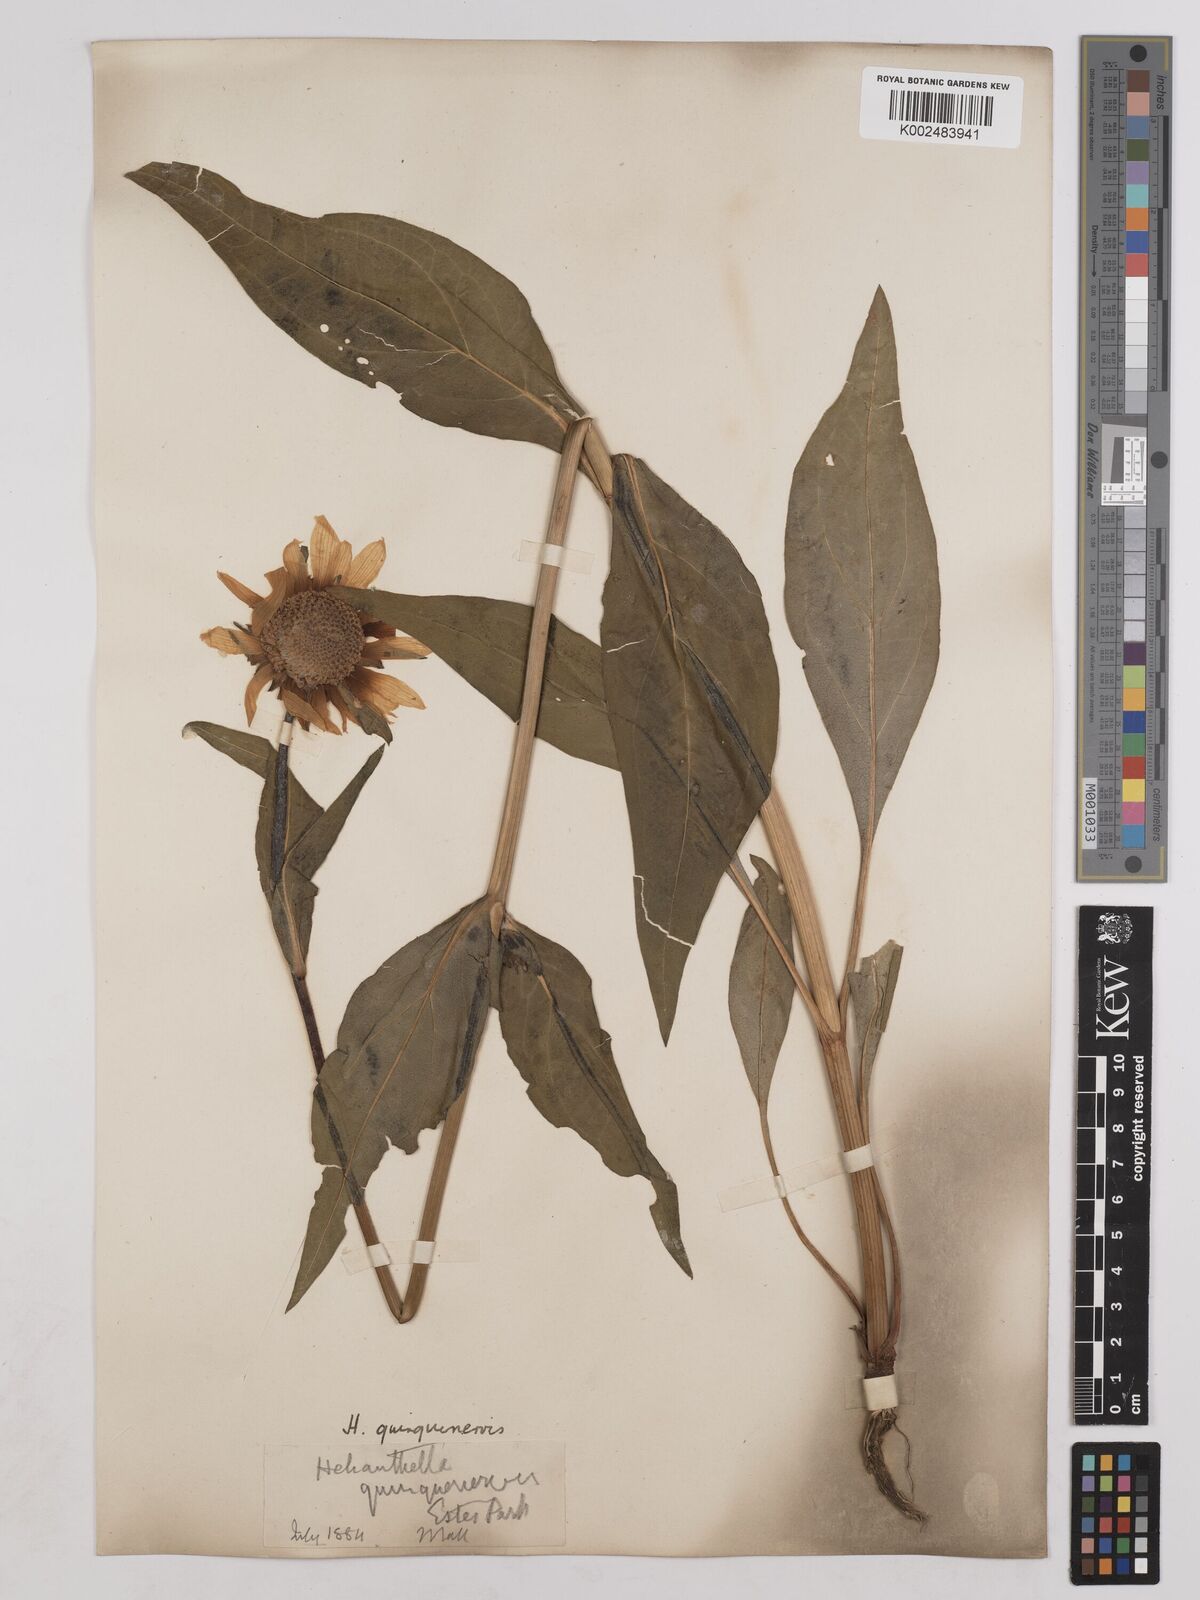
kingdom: Plantae
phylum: Tracheophyta
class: Magnoliopsida
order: Asterales
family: Asteraceae
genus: Helianthella
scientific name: Helianthella quinquenervis
